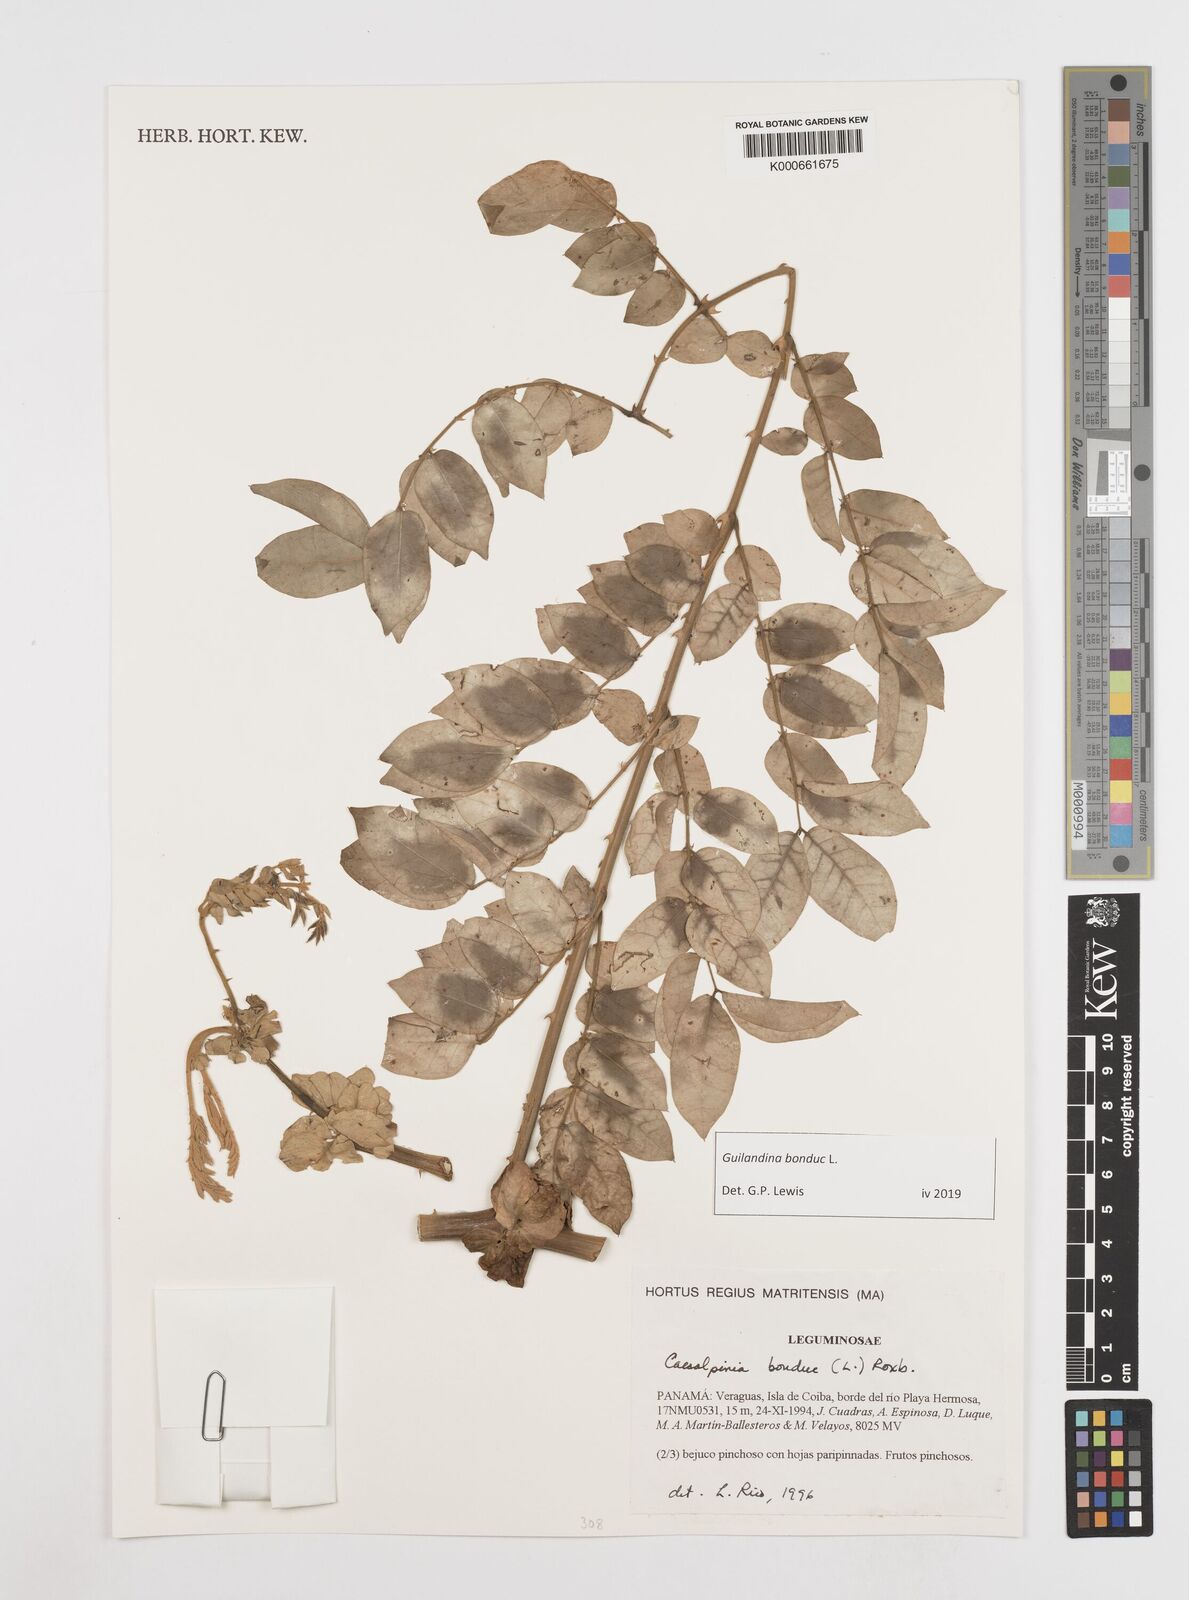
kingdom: Plantae
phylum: Tracheophyta
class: Magnoliopsida
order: Fabales
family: Fabaceae
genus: Guilandina
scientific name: Guilandina bonduc
